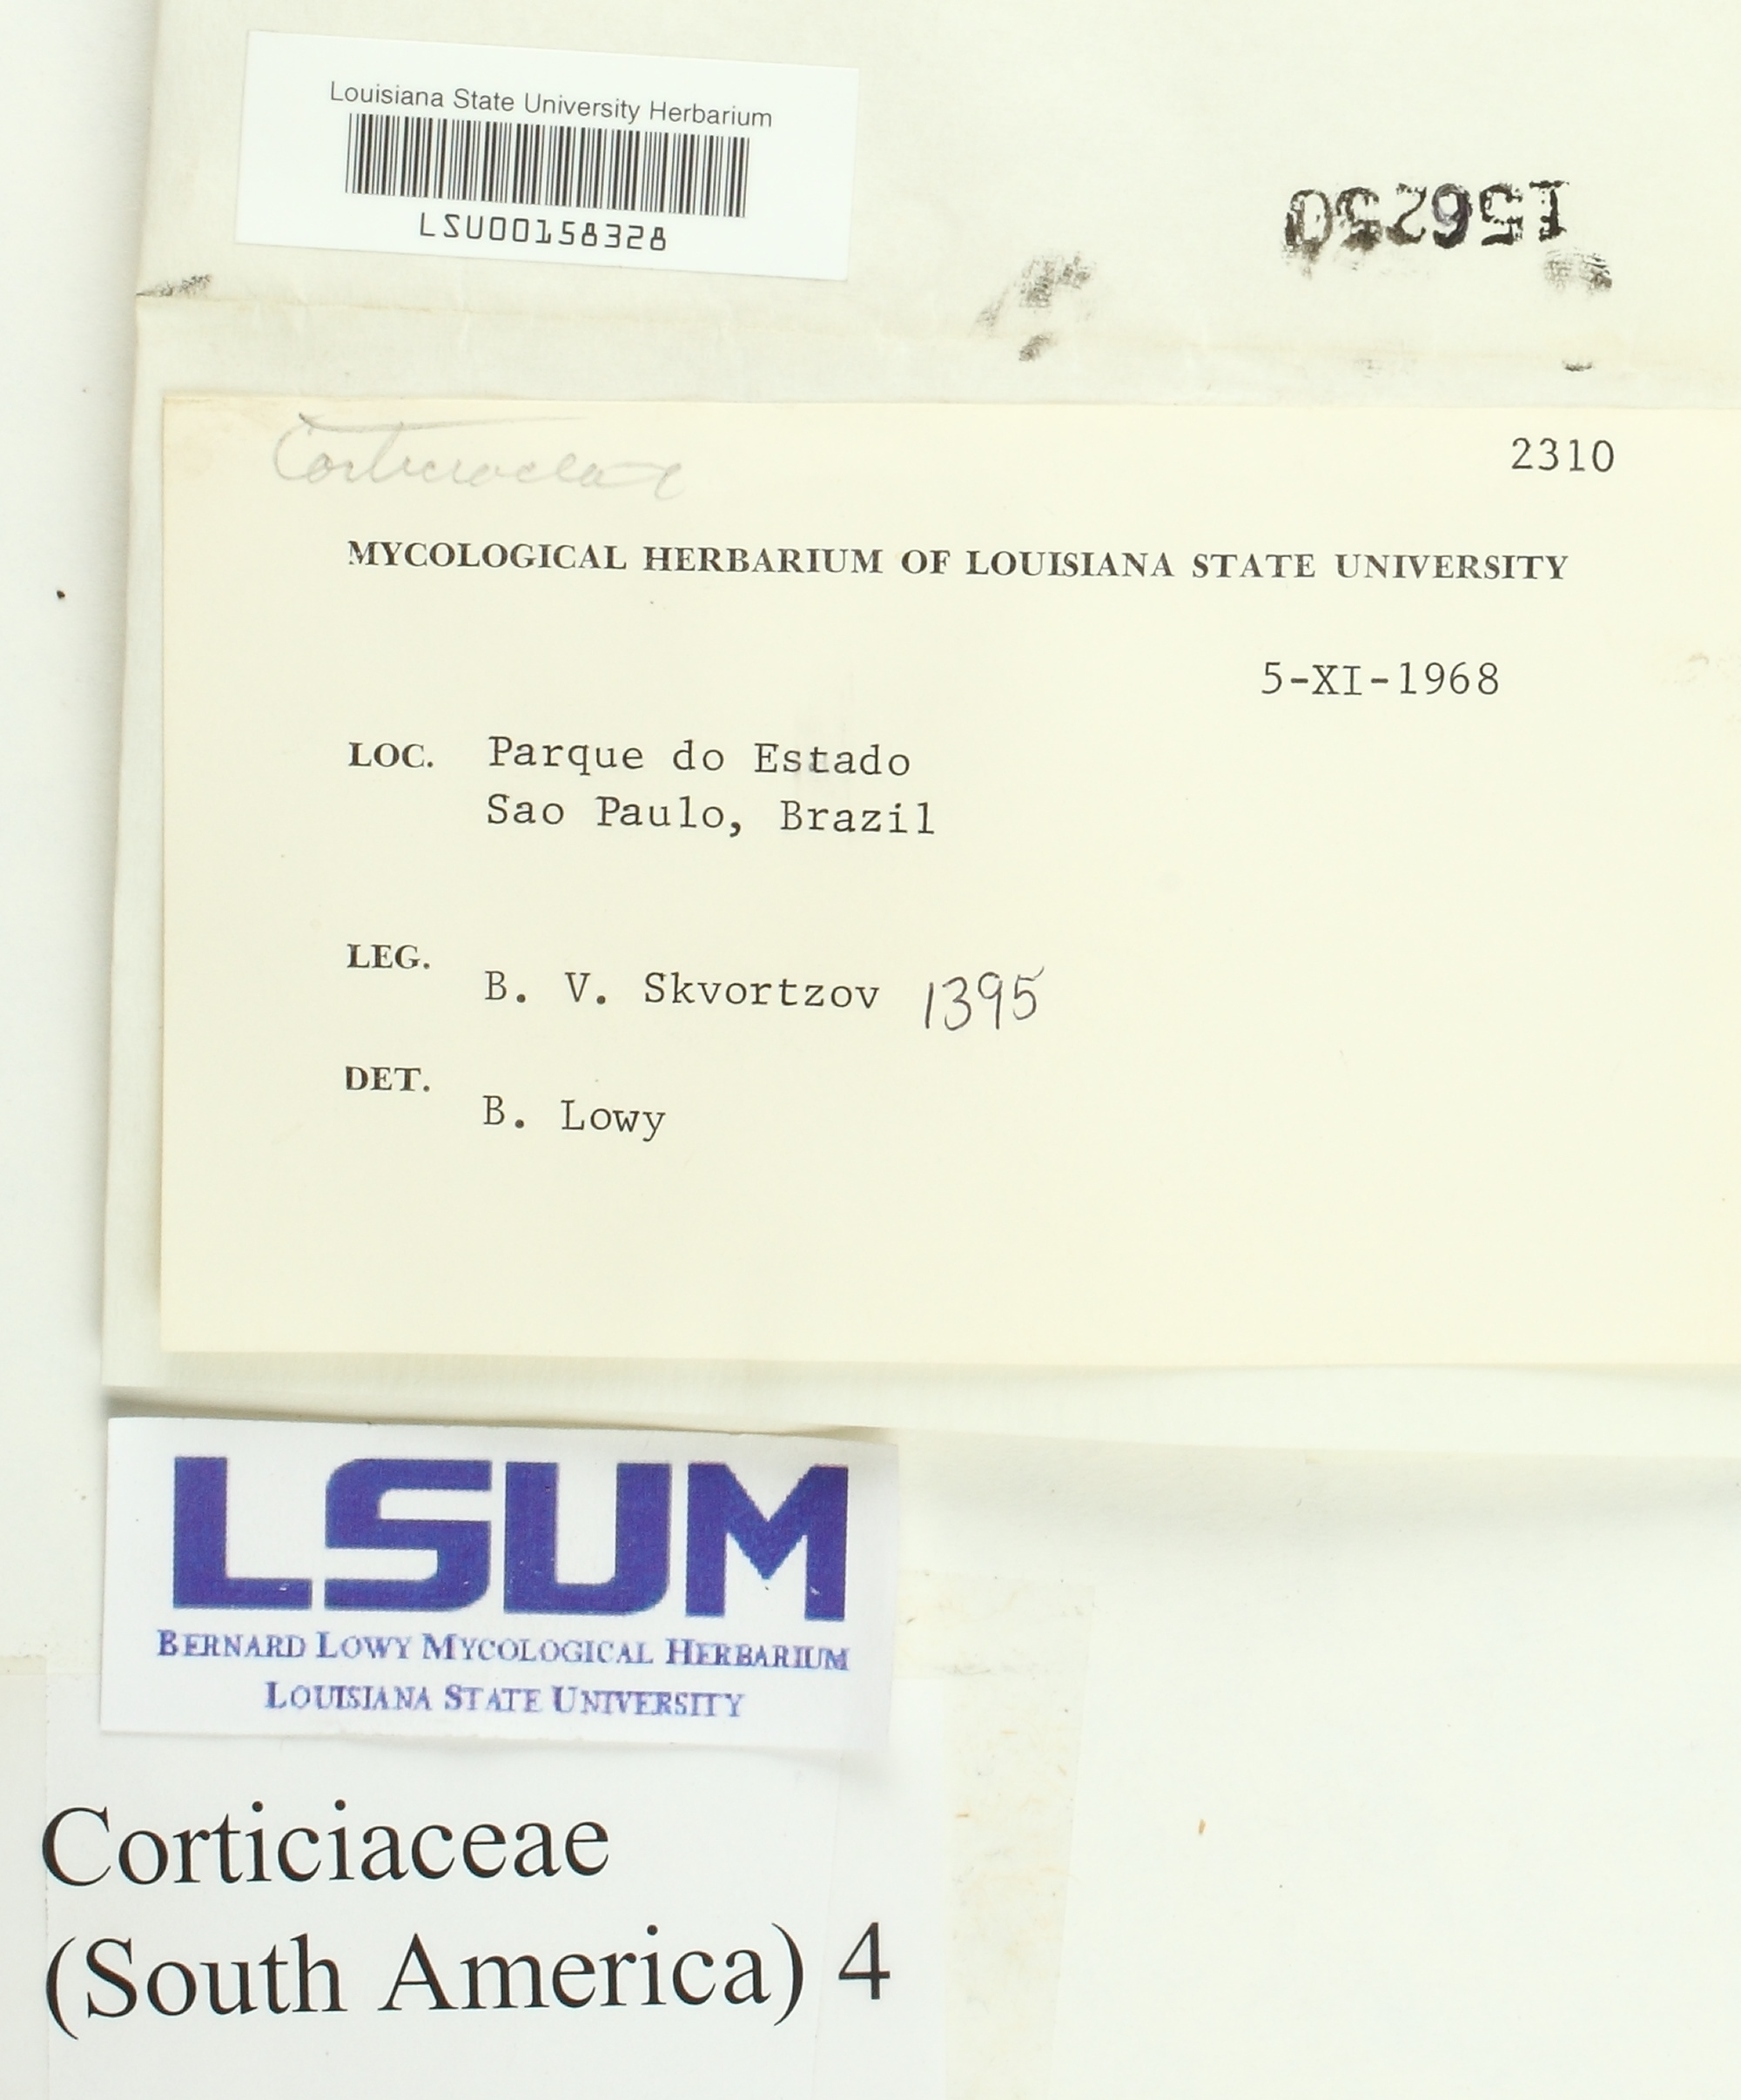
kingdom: Fungi
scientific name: Fungi
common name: Fungi
